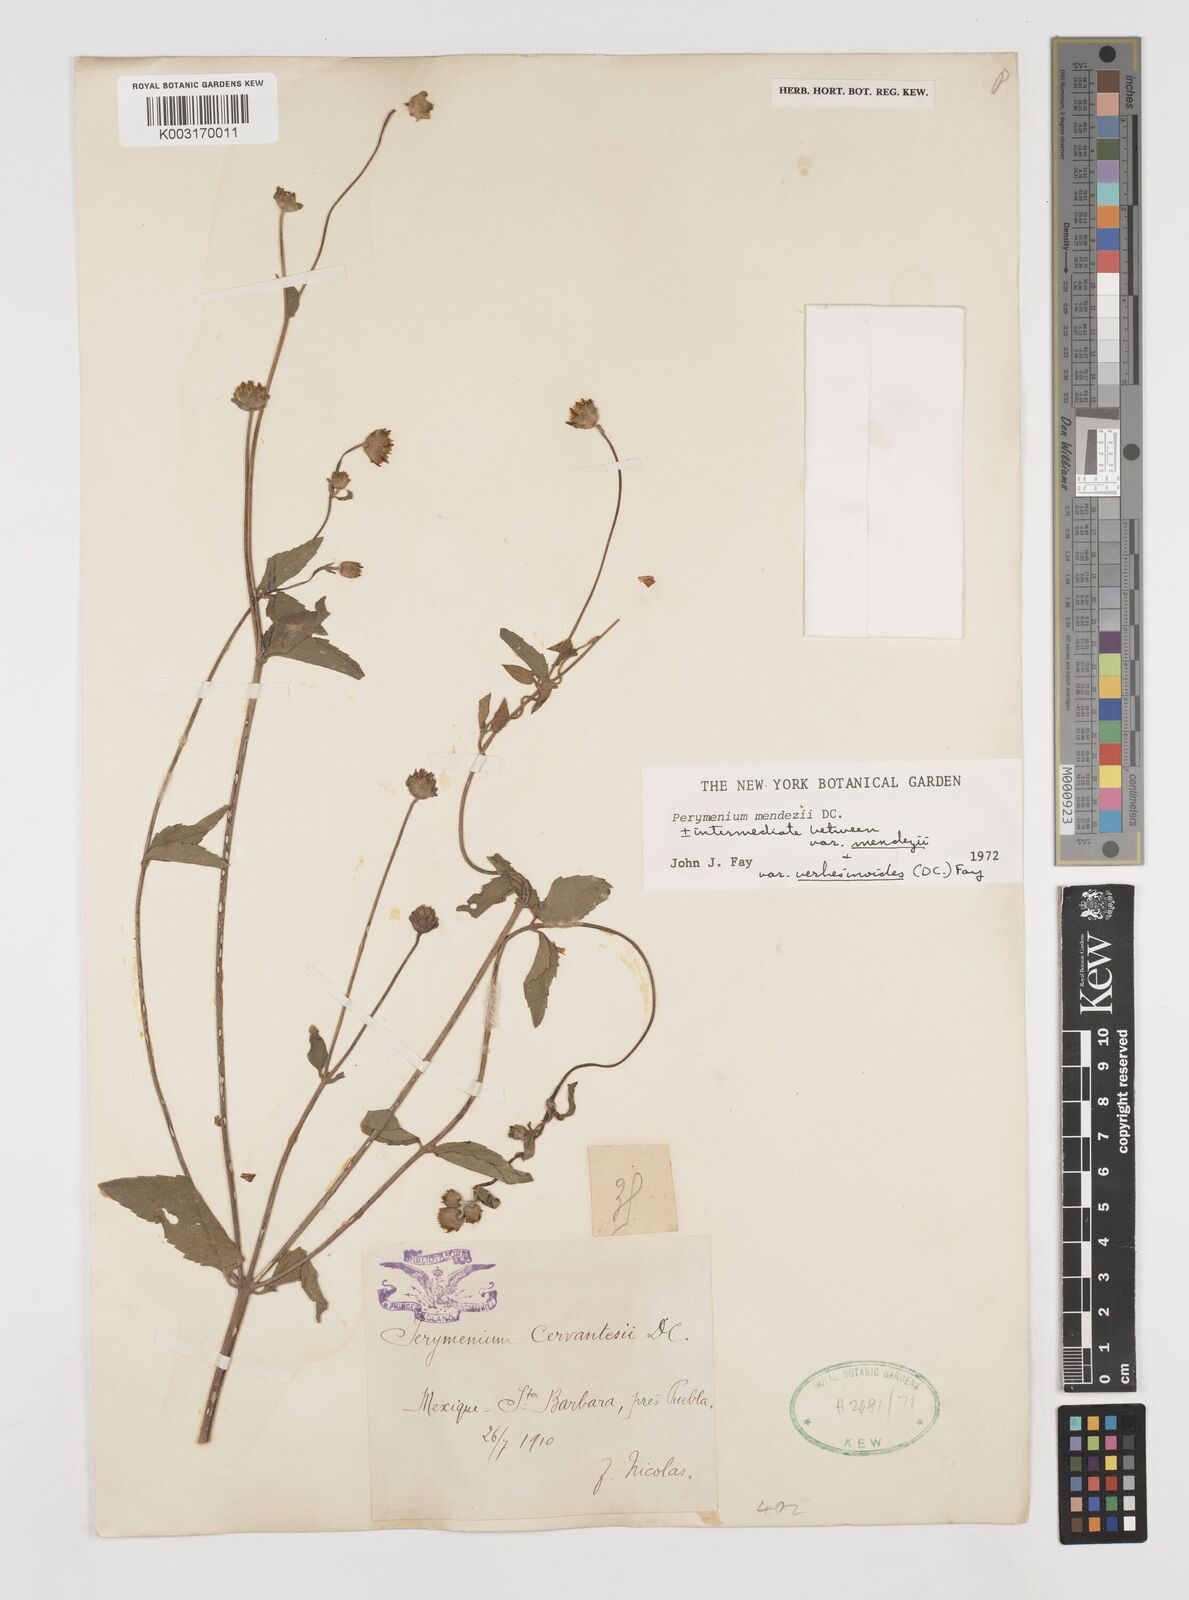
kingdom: Plantae
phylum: Tracheophyta
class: Magnoliopsida
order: Asterales
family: Asteraceae
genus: Perymenium
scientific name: Perymenium mendezii
